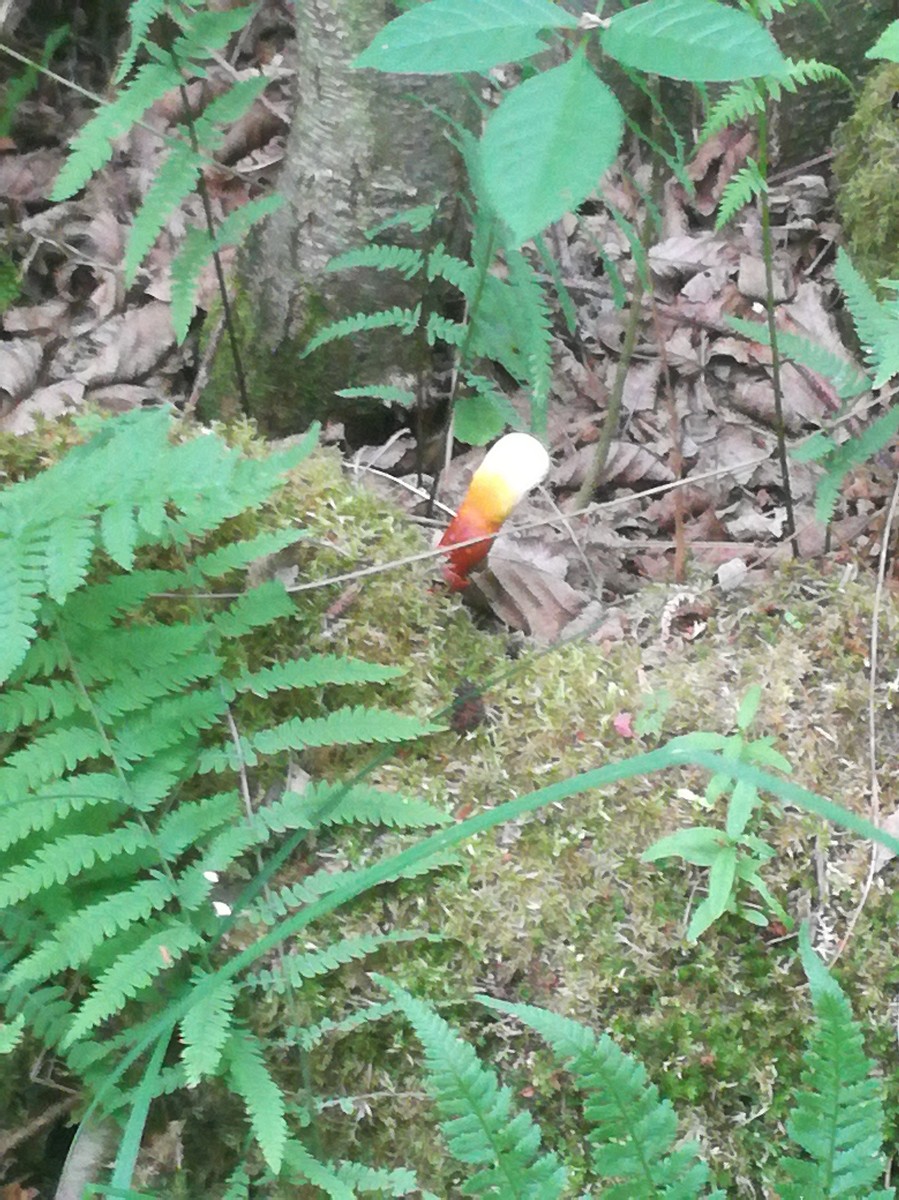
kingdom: Fungi
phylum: Basidiomycota
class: Agaricomycetes
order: Polyporales
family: Polyporaceae
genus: Ganoderma
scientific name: Ganoderma lucidum
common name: skinnende lakporesvamp
